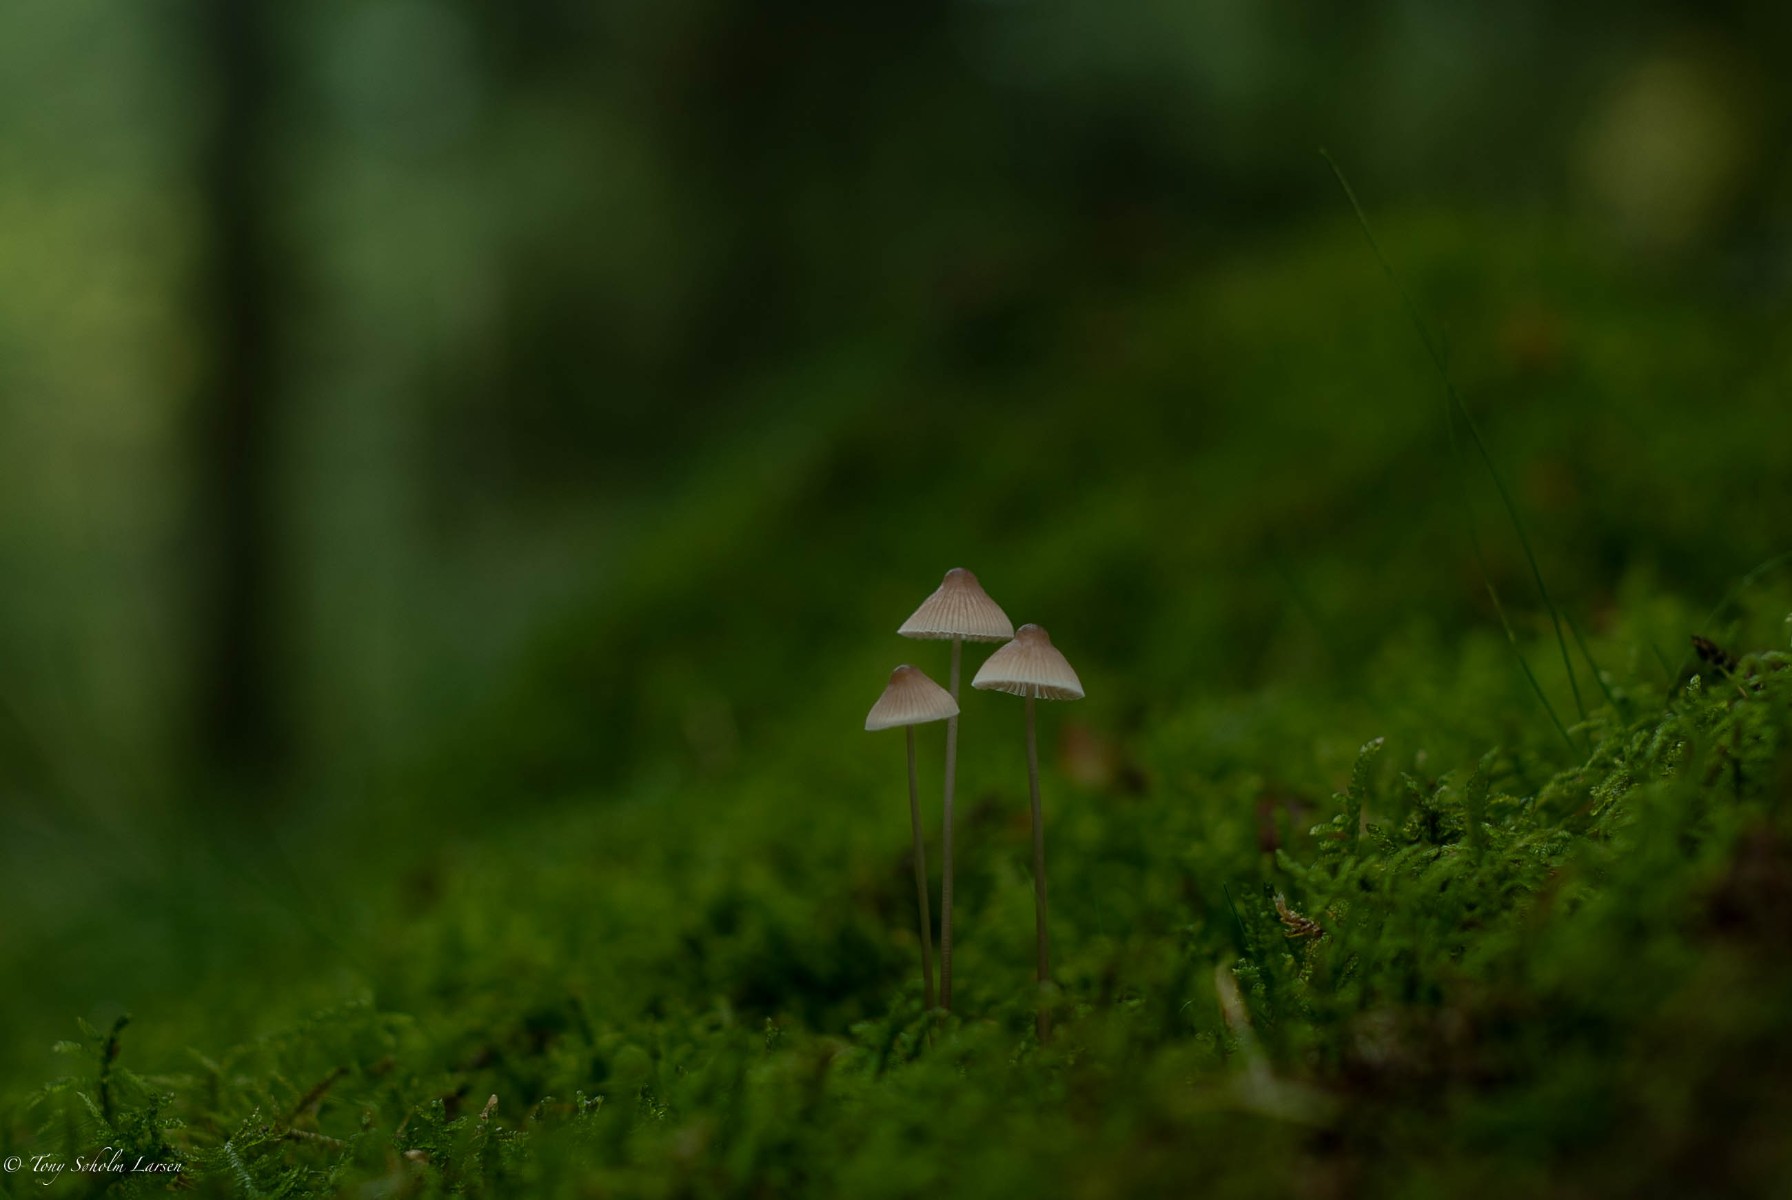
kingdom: Fungi
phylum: Basidiomycota
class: Agaricomycetes
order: Agaricales
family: Mycenaceae
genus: Mycena
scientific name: Mycena
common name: huesvamp
